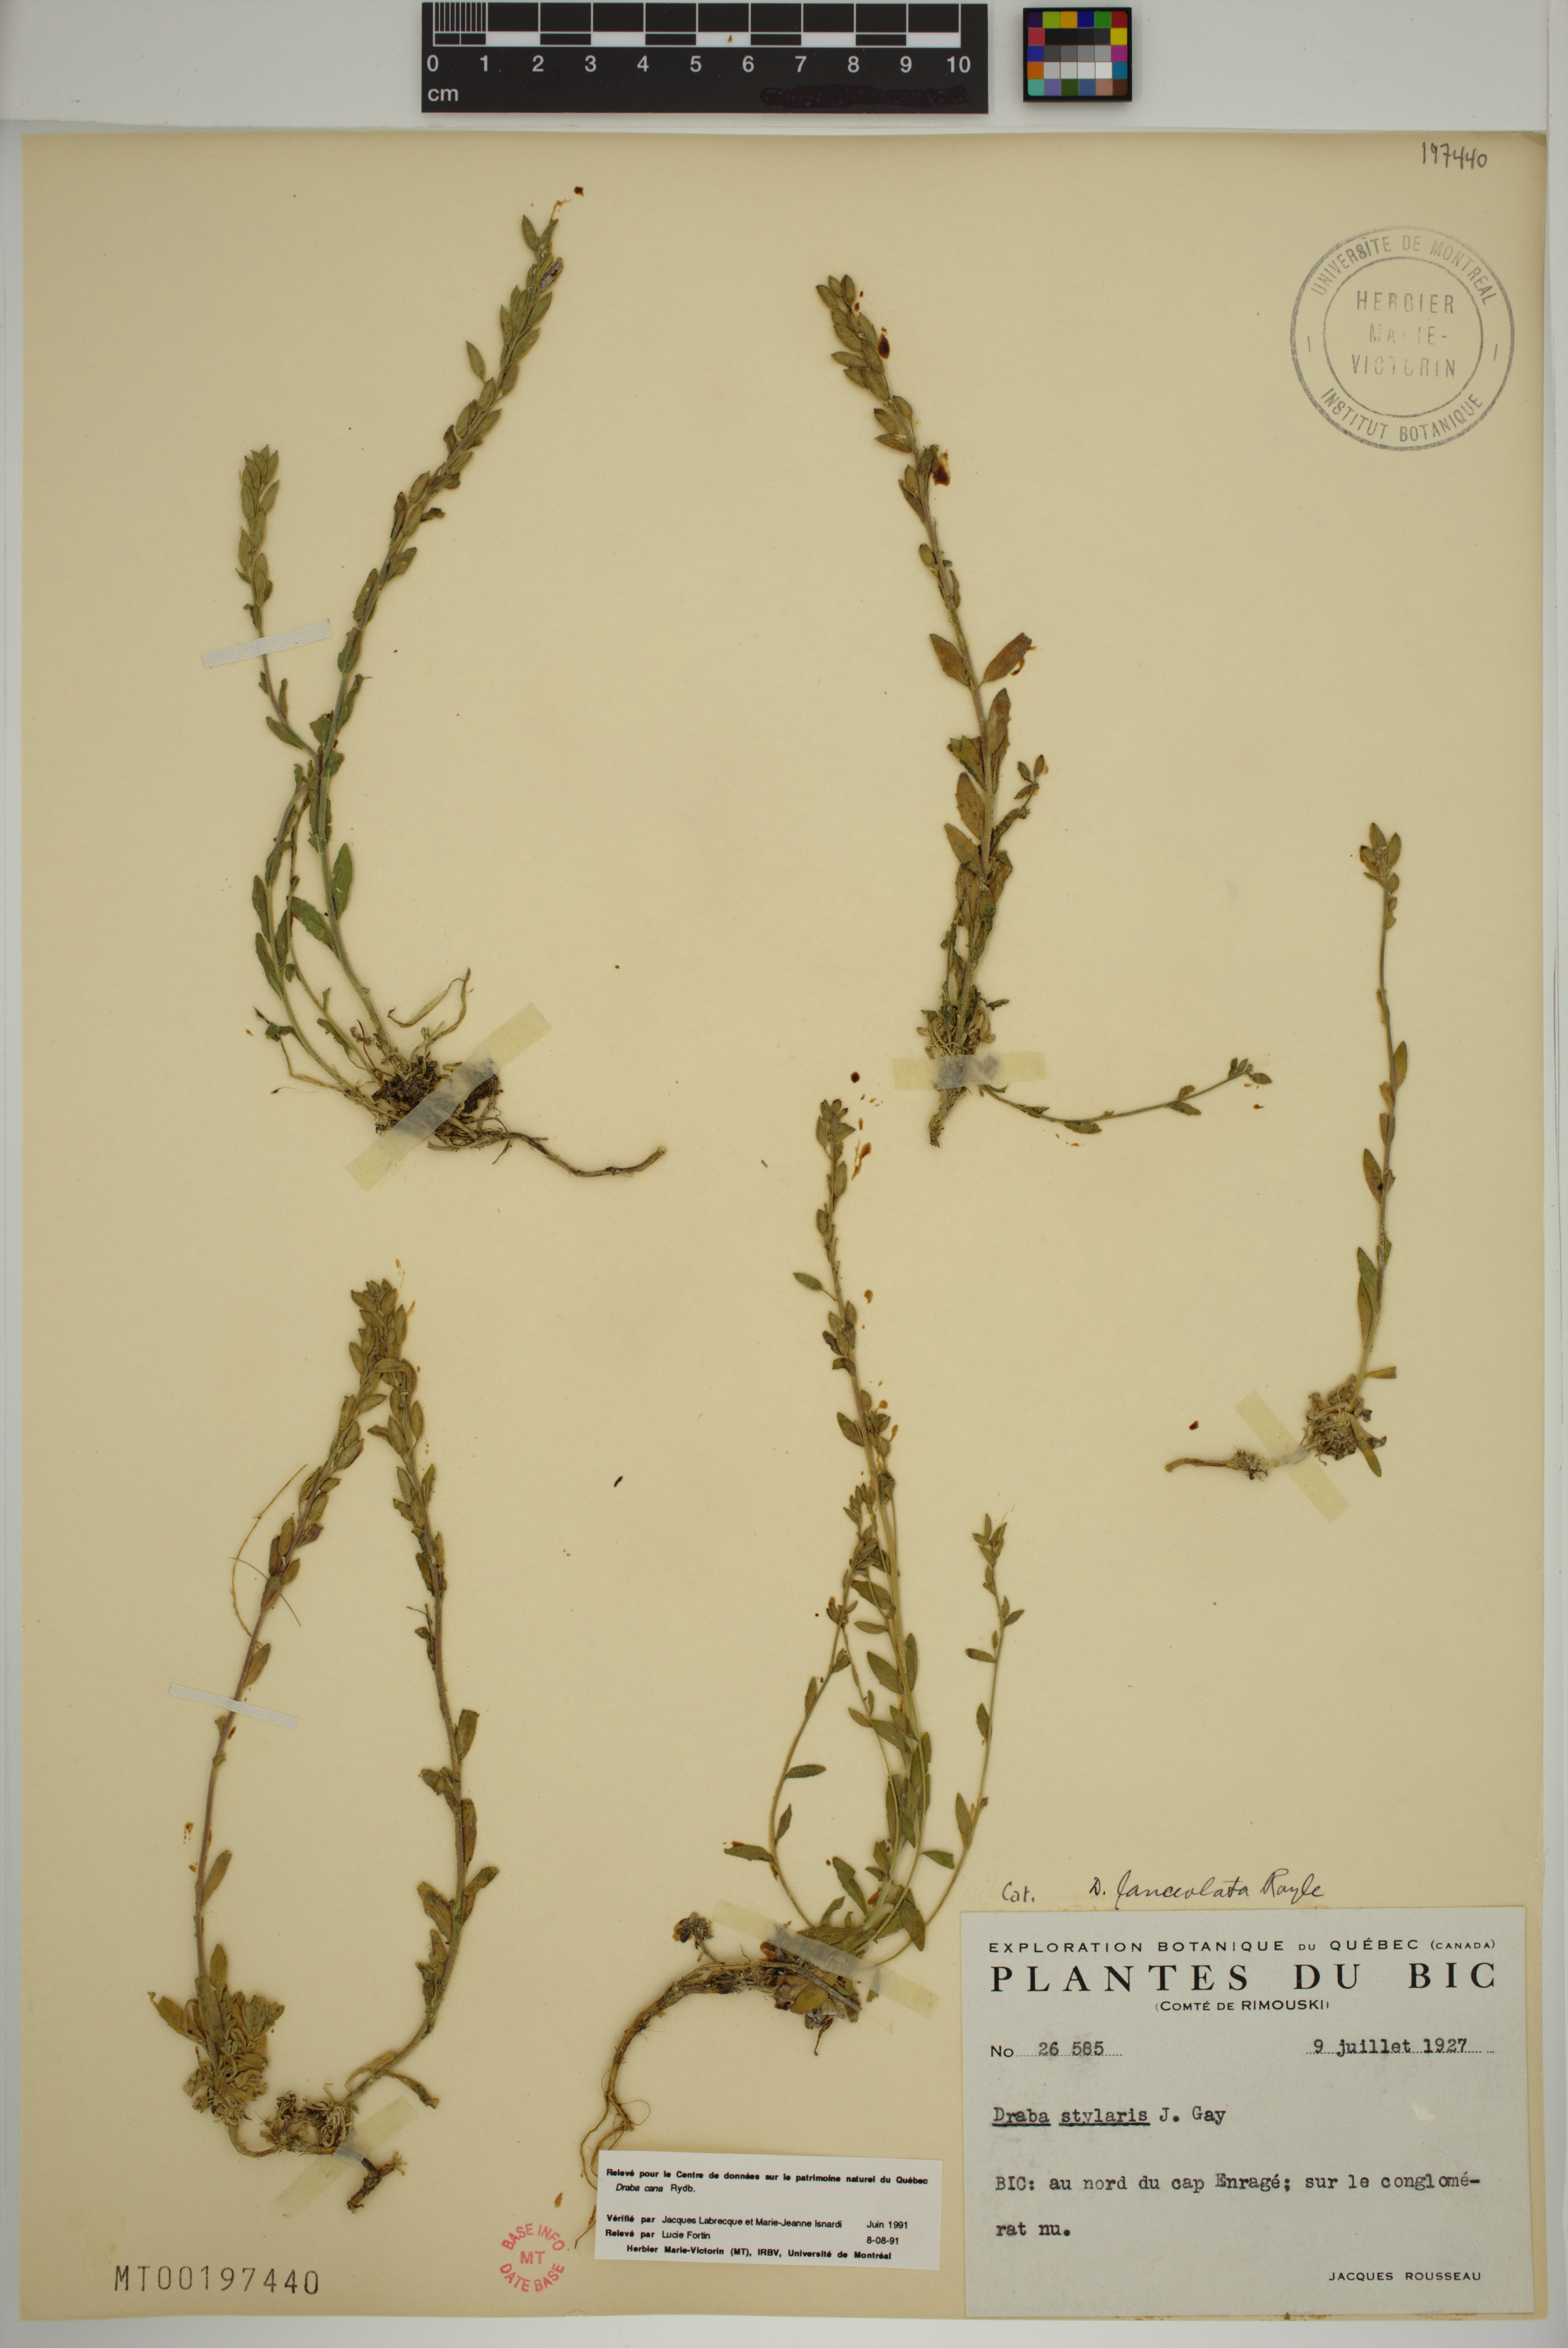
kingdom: Plantae
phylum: Tracheophyta
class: Magnoliopsida
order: Brassicales
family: Brassicaceae
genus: Draba
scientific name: Draba cana
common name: Hoary draba
